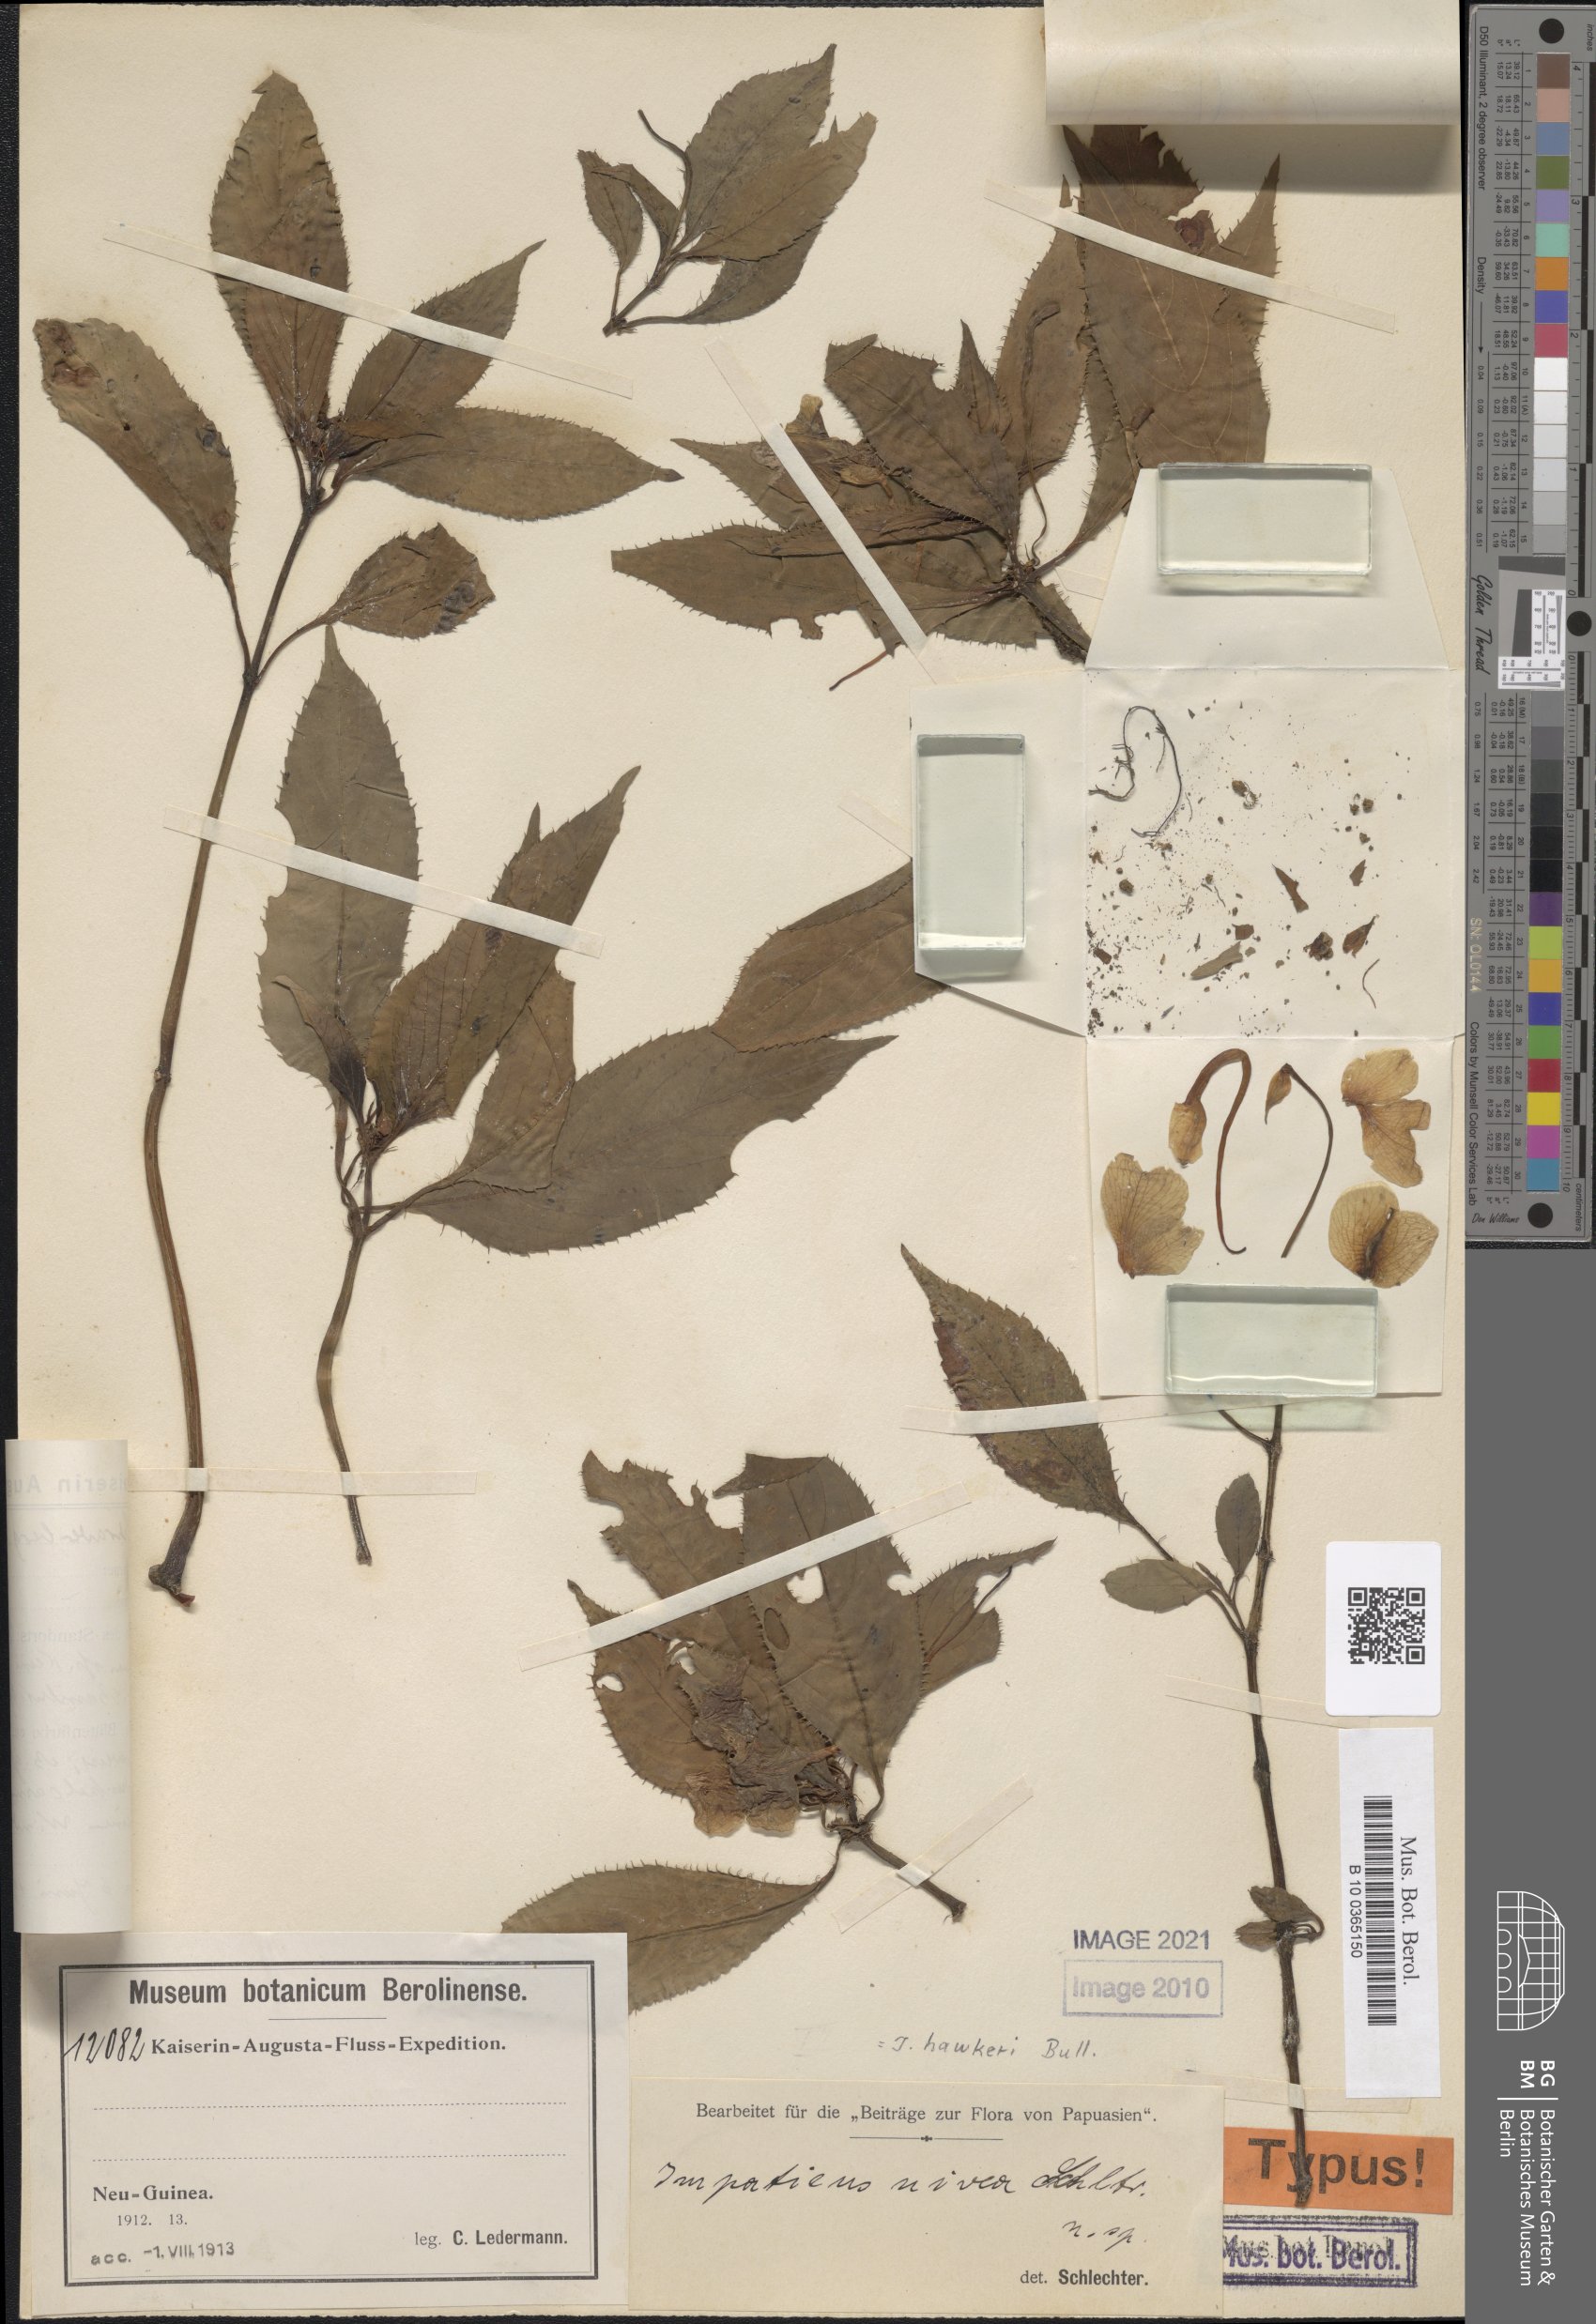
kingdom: Plantae
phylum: Tracheophyta
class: Magnoliopsida
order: Ericales
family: Balsaminaceae
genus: Impatiens
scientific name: Impatiens hawkeri
